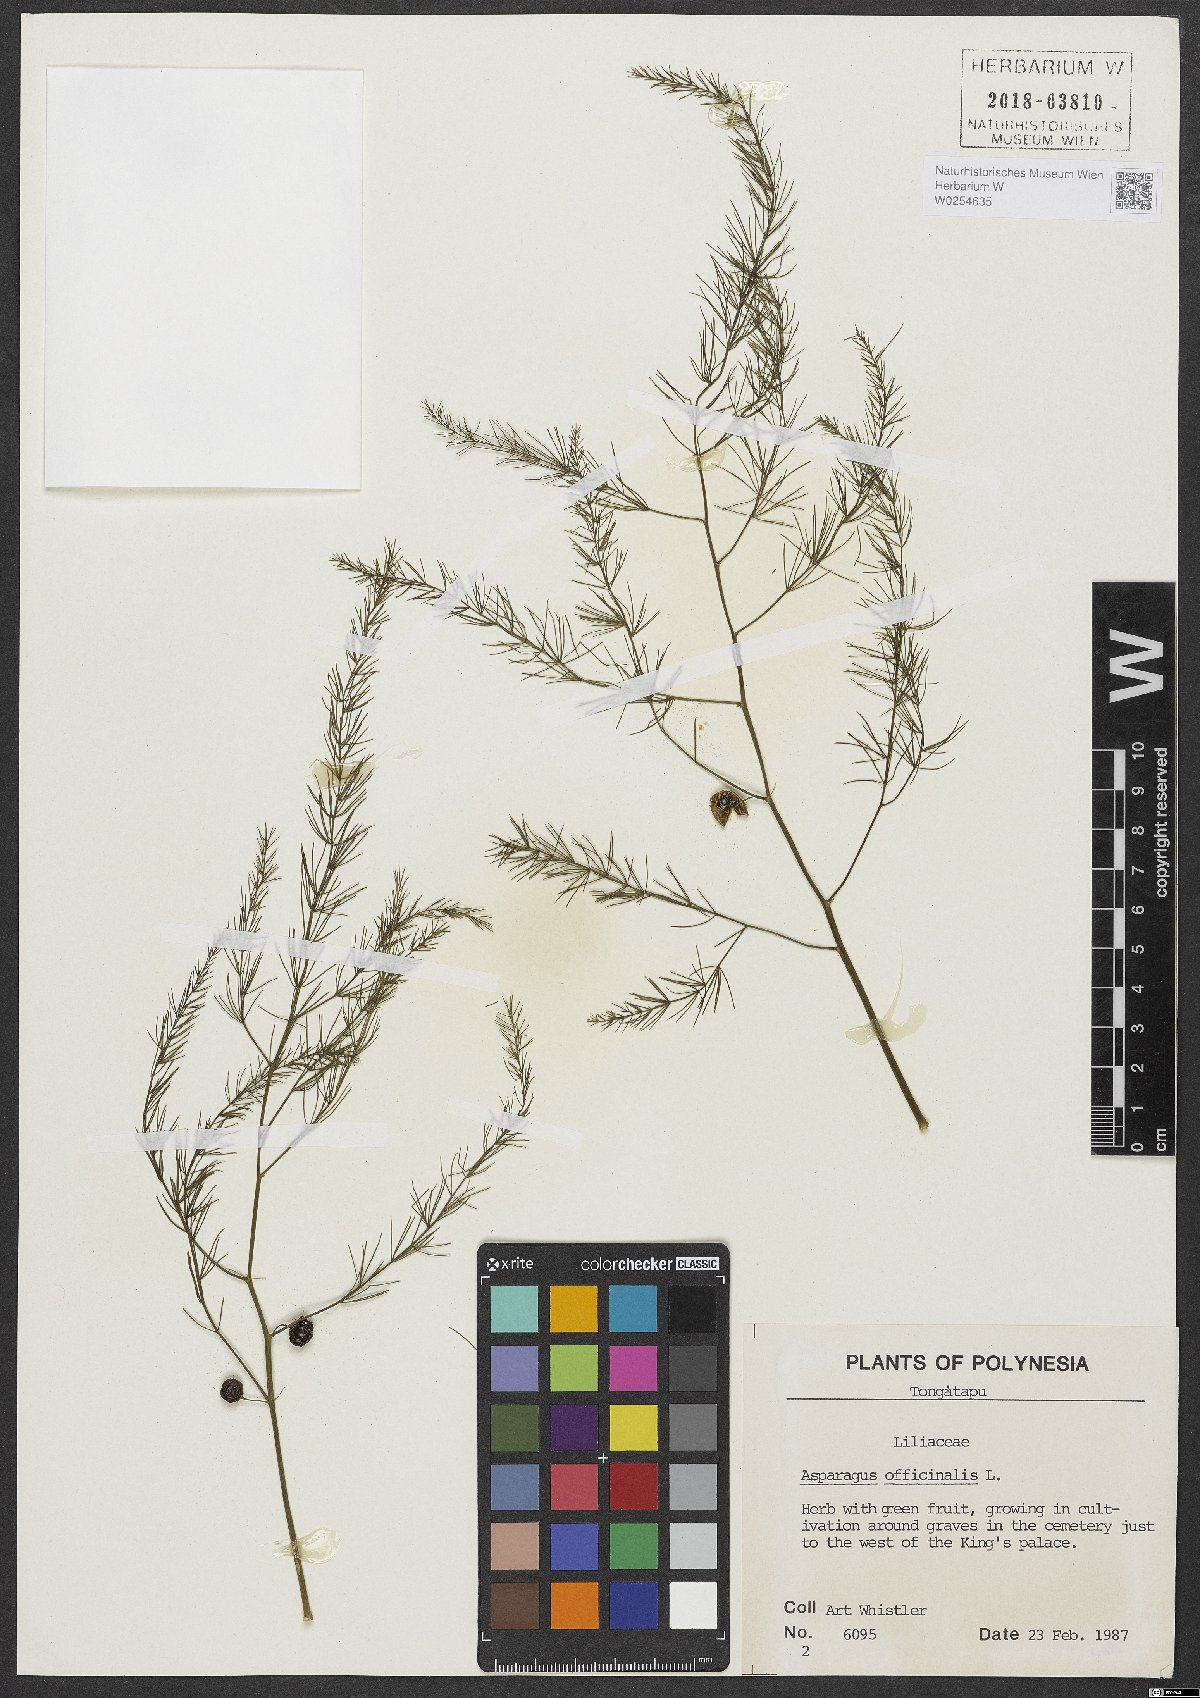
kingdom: Plantae
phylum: Tracheophyta
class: Liliopsida
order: Asparagales
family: Asparagaceae
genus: Asparagus
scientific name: Asparagus officinalis
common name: Garden asparagus
